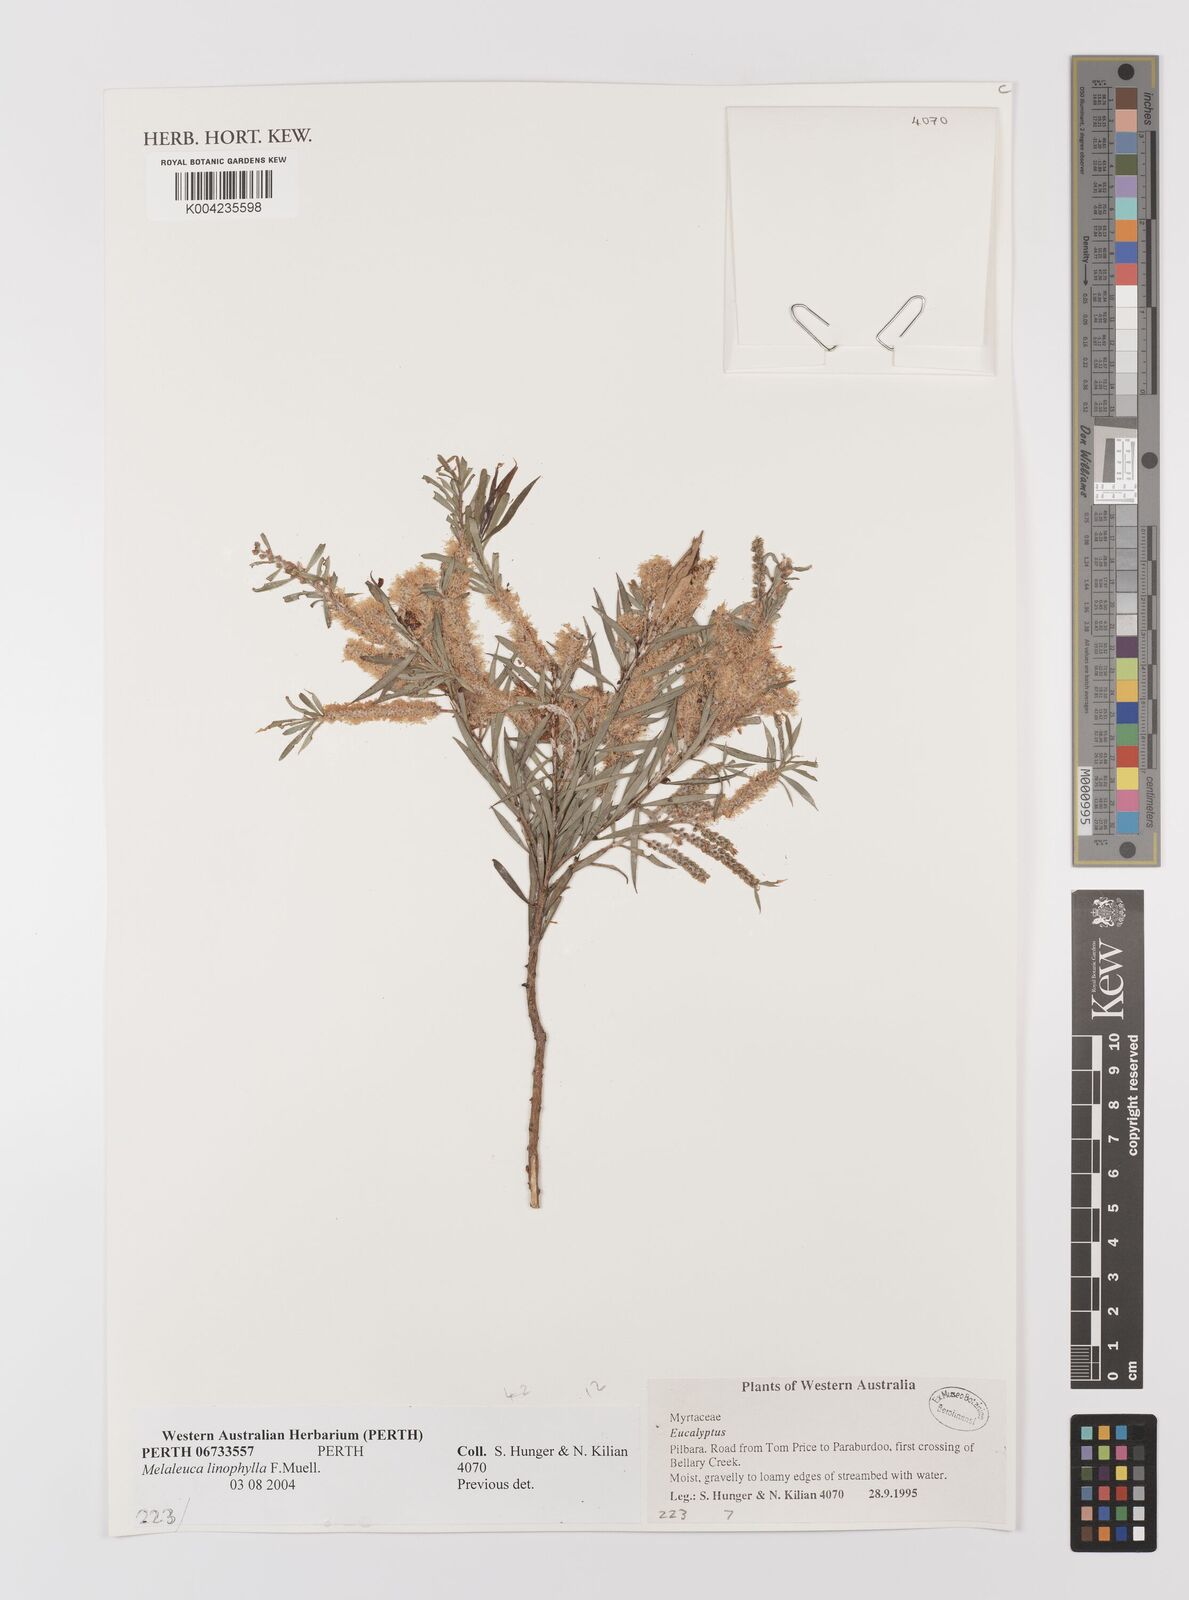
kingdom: Plantae
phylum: Tracheophyta
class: Magnoliopsida
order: Myrtales
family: Myrtaceae
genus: Melaleuca
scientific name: Melaleuca linophylla
